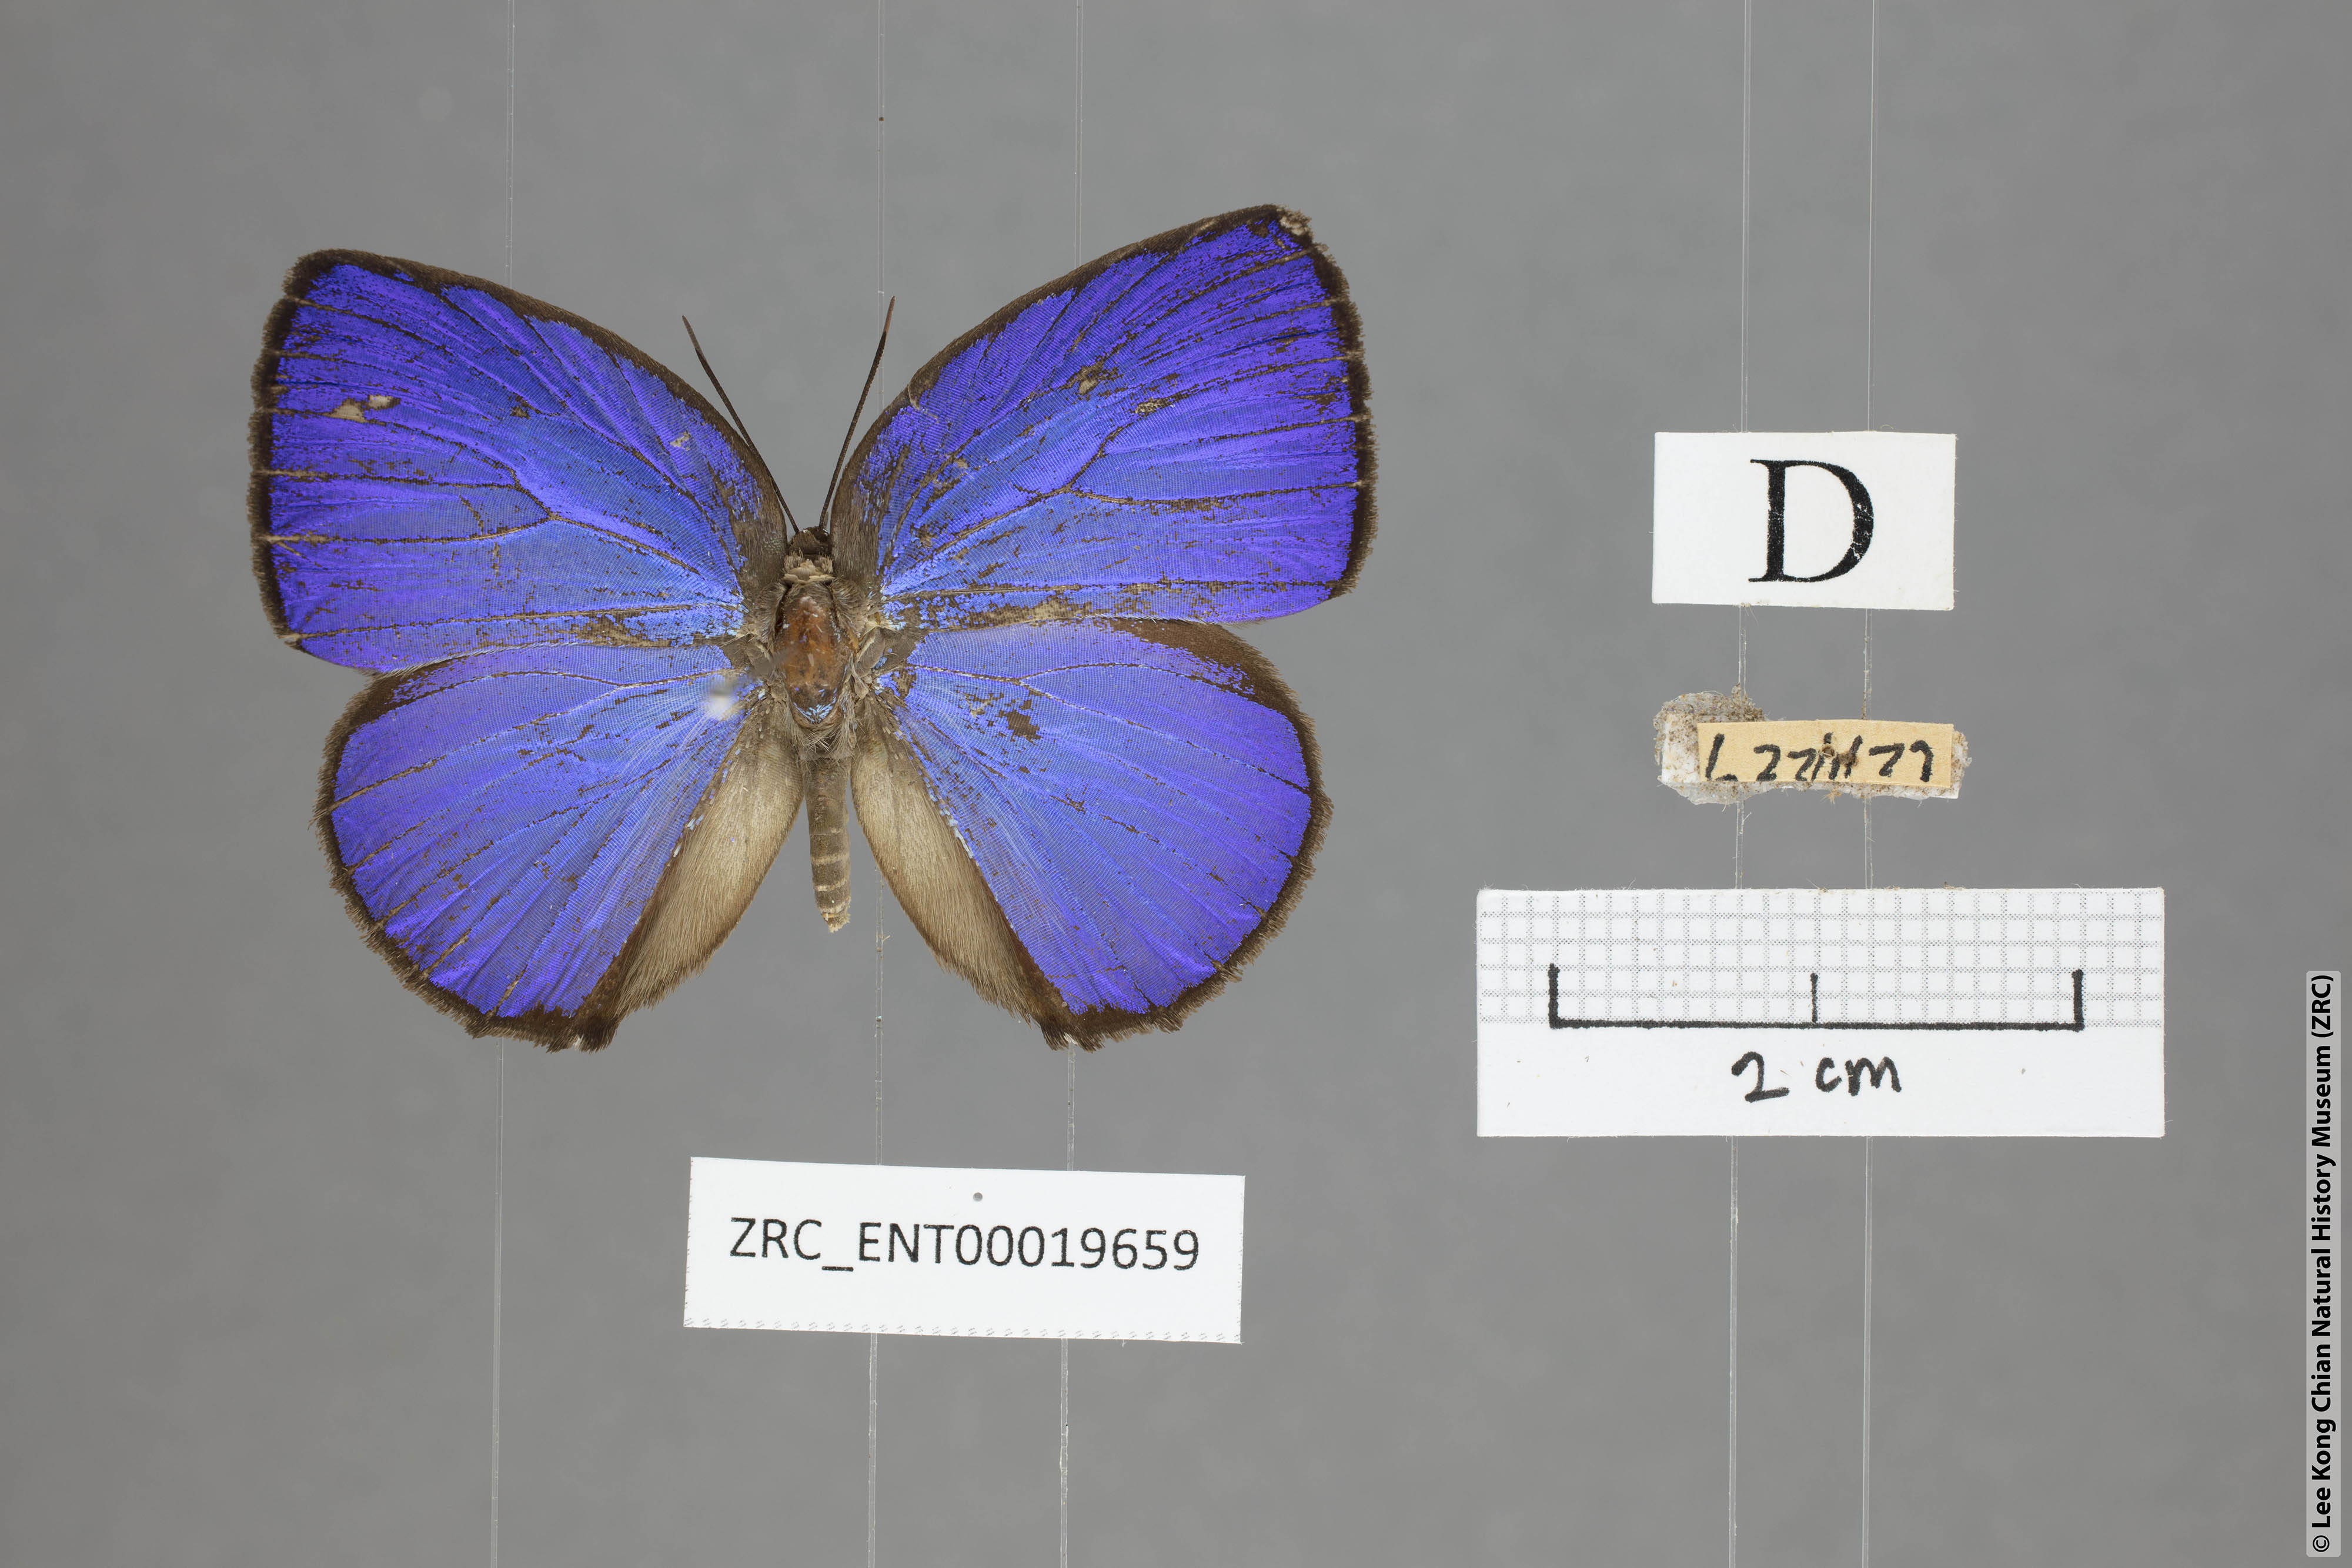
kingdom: Animalia
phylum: Arthropoda
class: Insecta
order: Lepidoptera
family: Lycaenidae
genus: Arhopala
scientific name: Arhopala moolaina
